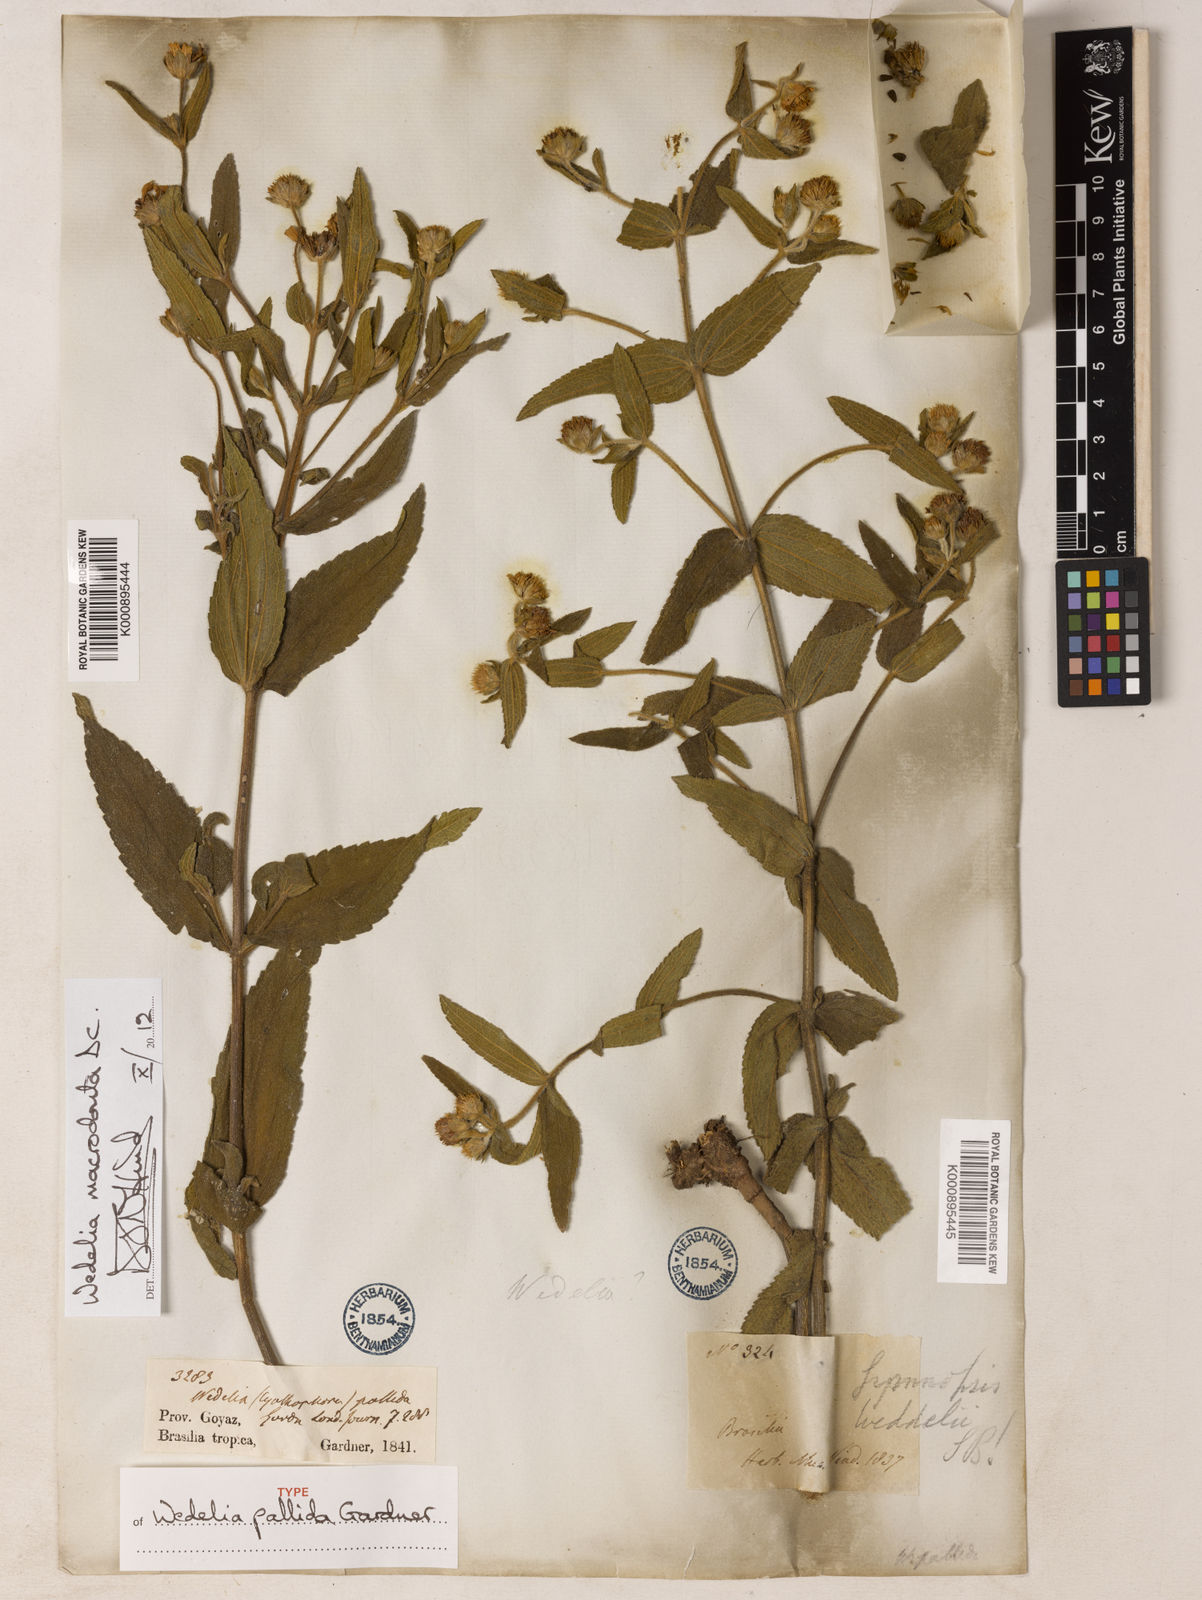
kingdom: Plantae
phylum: Tracheophyta
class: Magnoliopsida
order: Asterales
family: Asteraceae
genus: Wedelia
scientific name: Wedelia macrodonta
